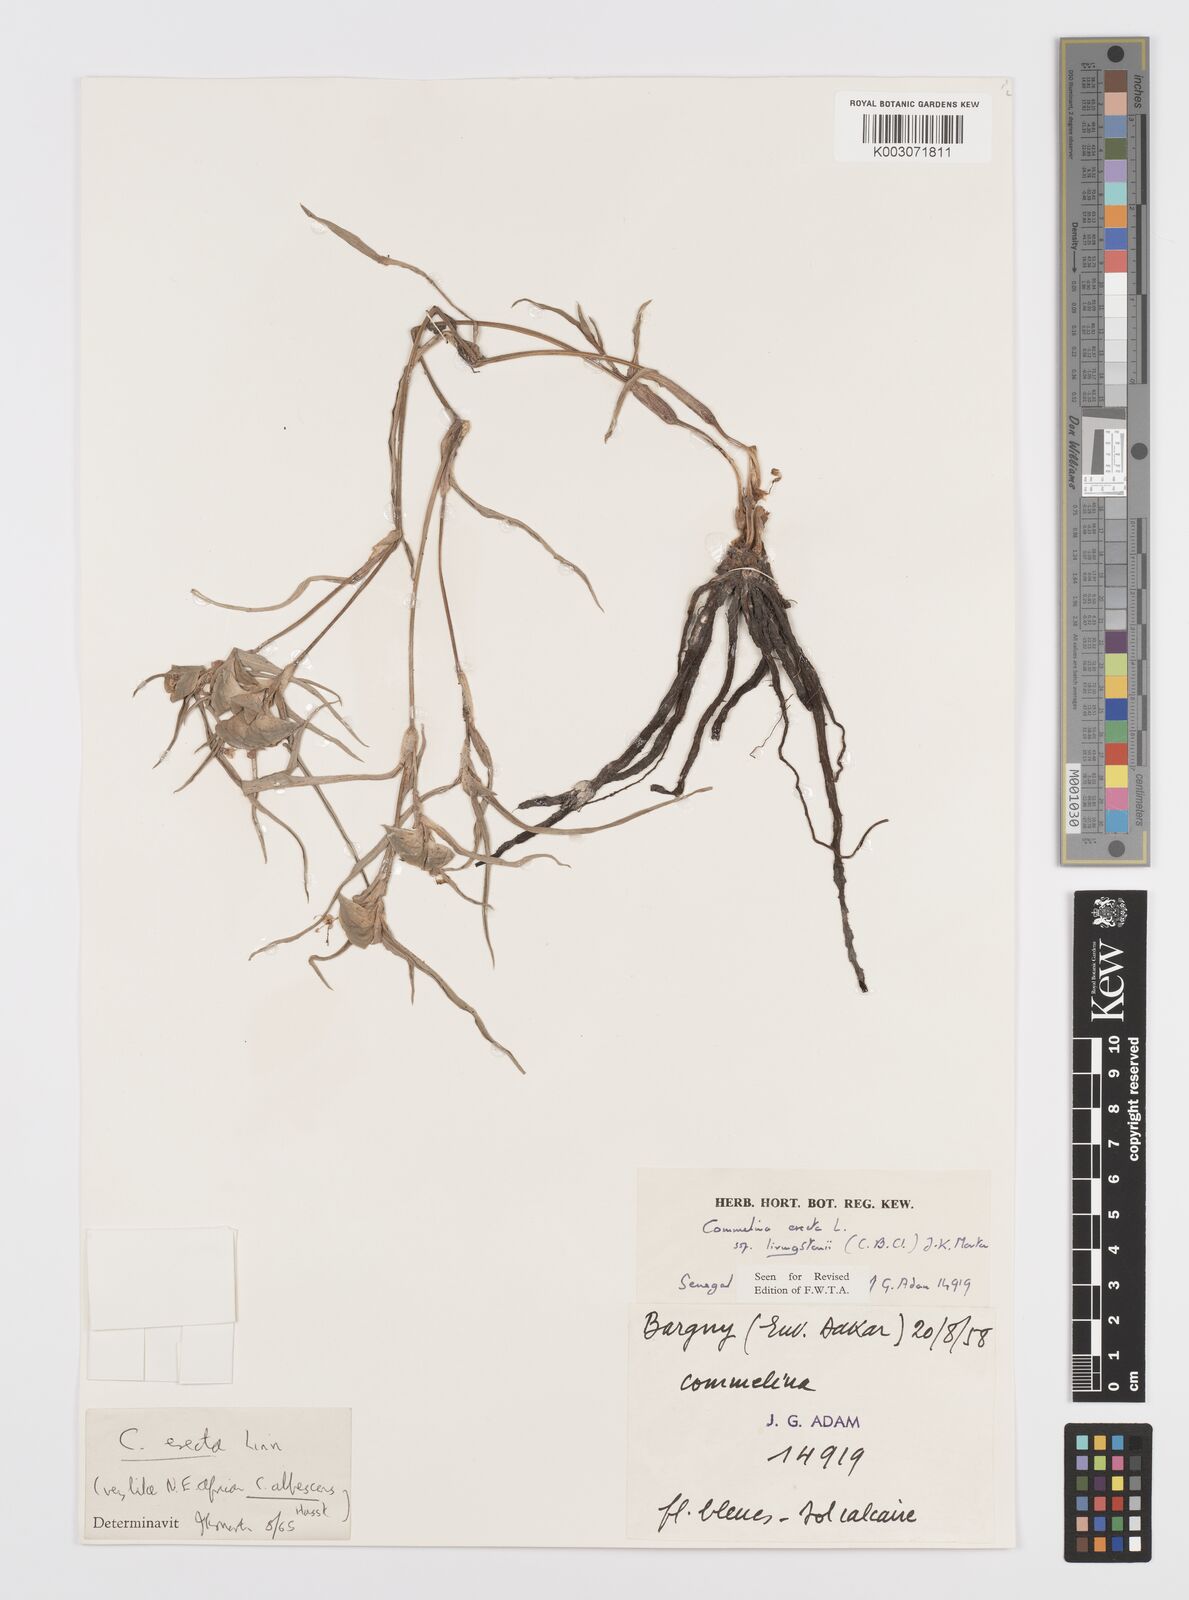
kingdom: Plantae
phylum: Tracheophyta
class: Liliopsida
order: Commelinales
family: Commelinaceae
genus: Commelina
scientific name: Commelina erecta
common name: Blousel blommetjie
